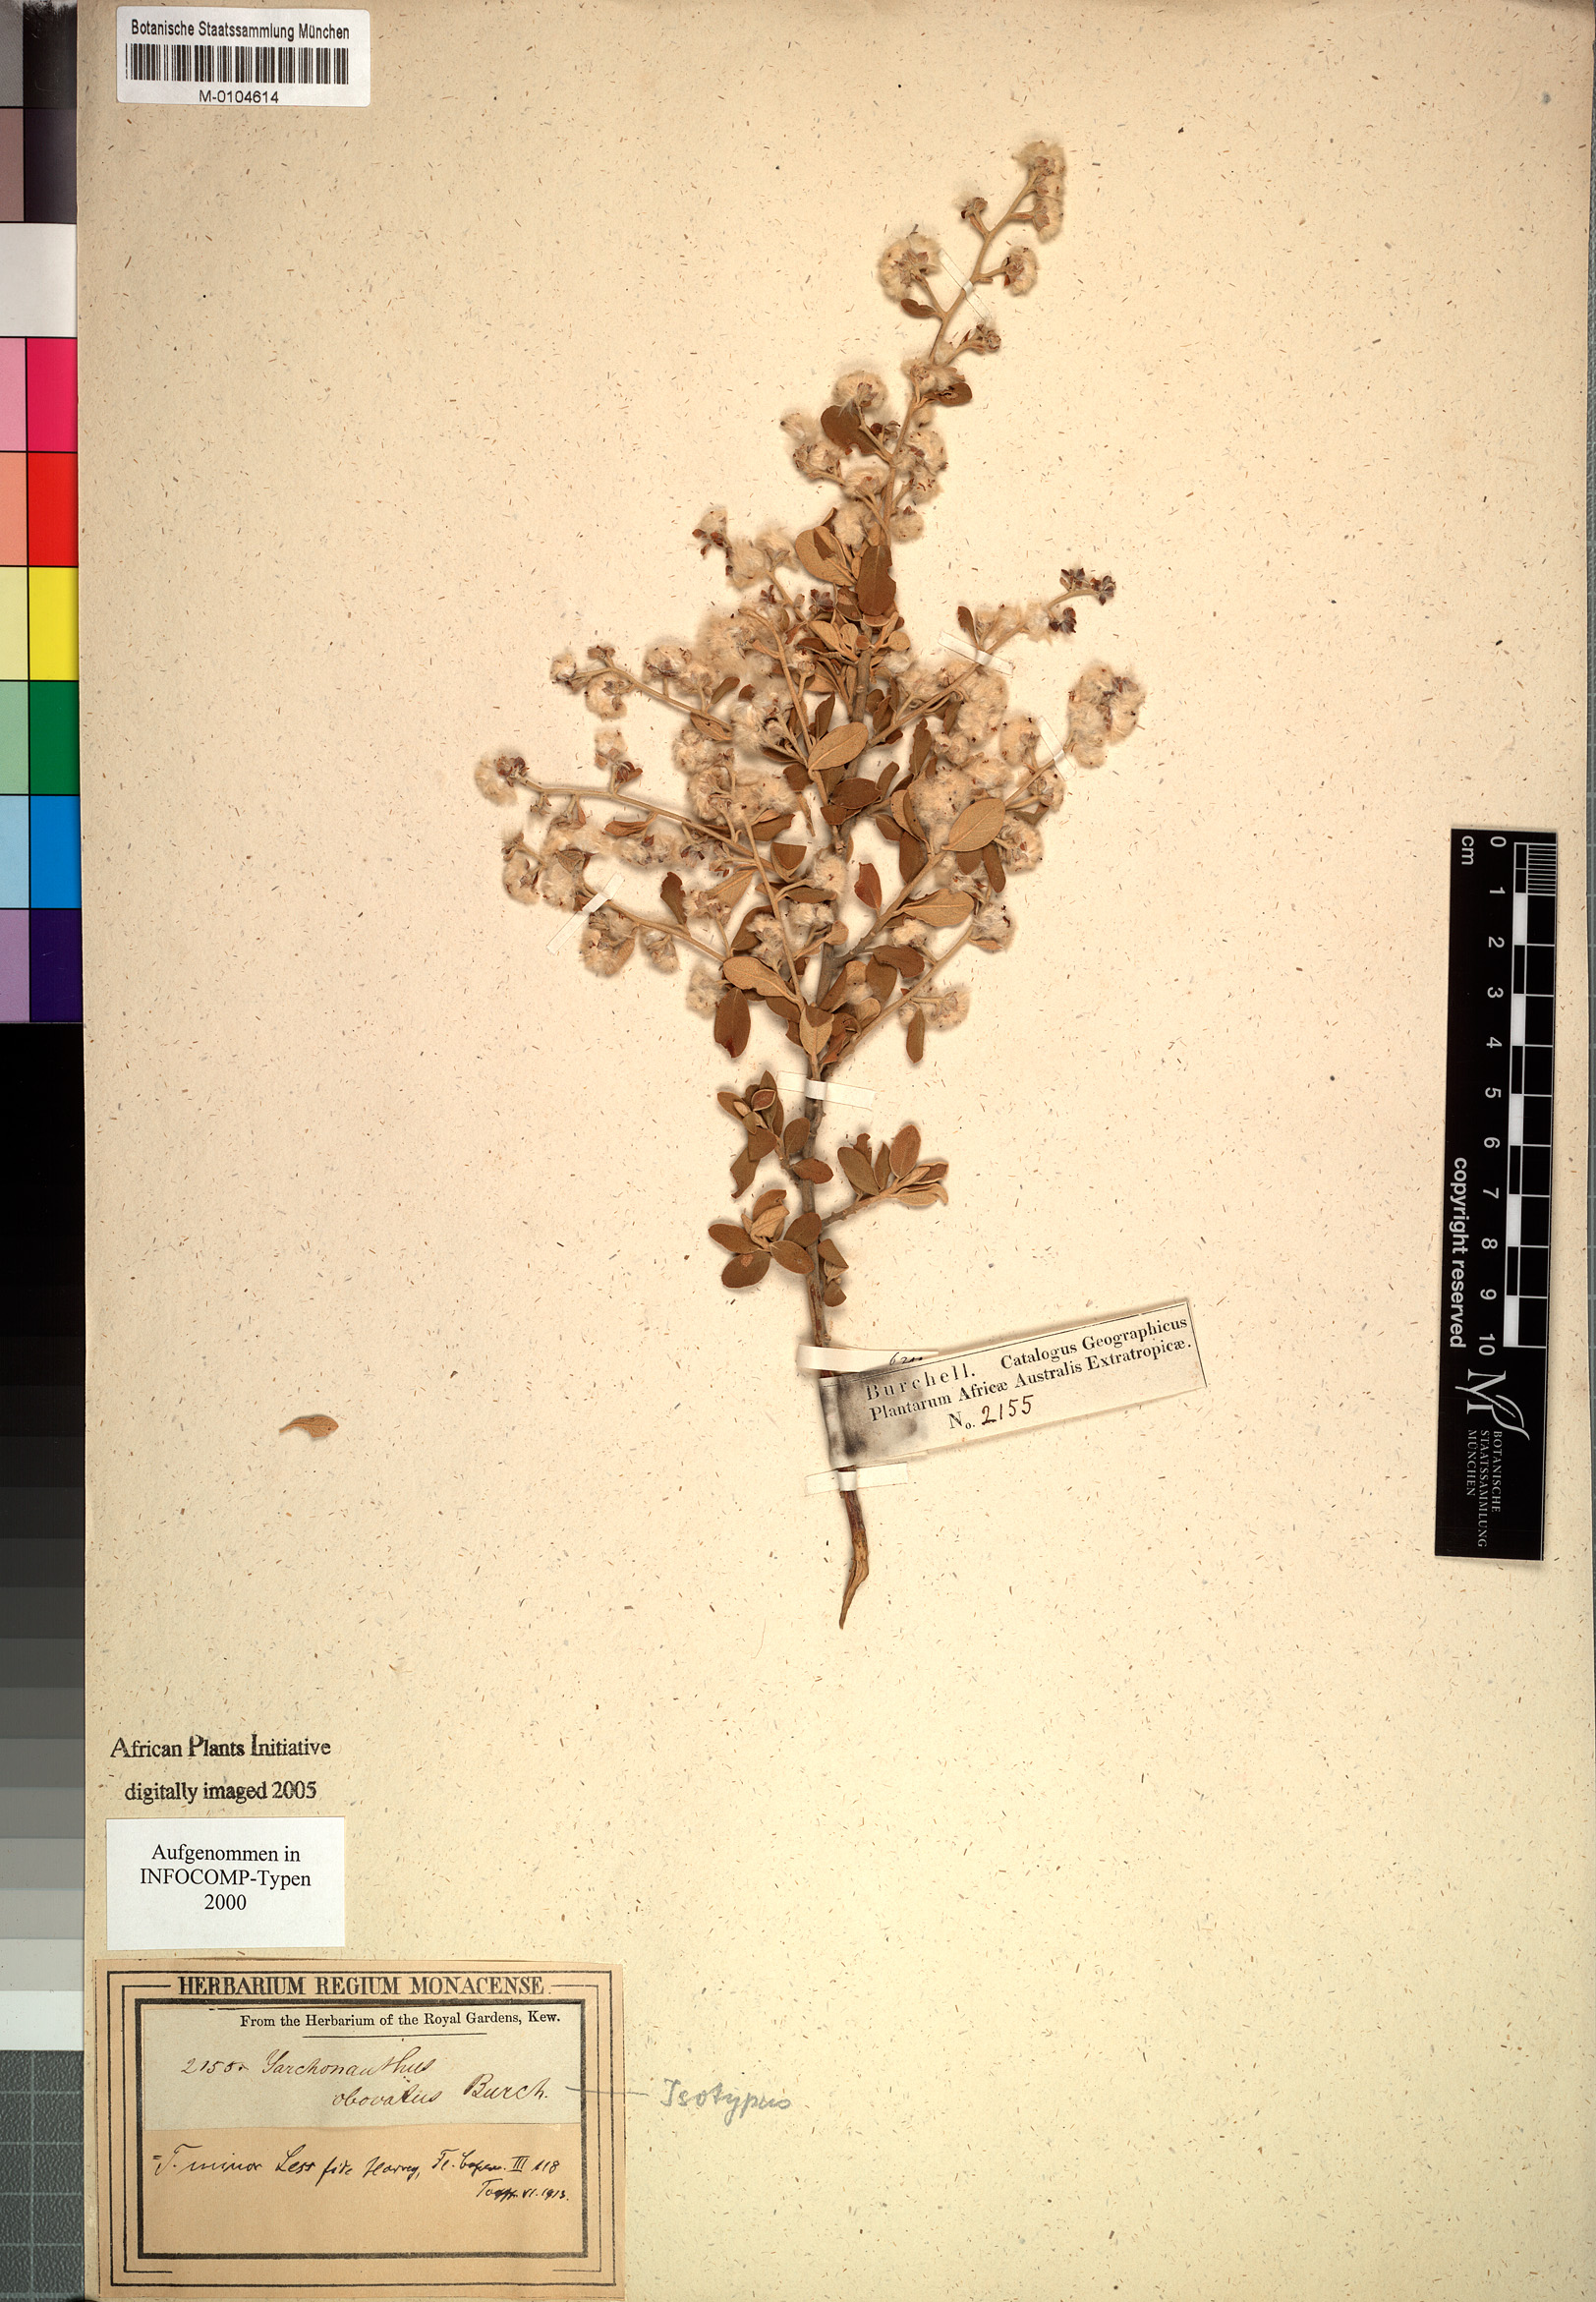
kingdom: Plantae
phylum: Tracheophyta
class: Magnoliopsida
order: Asterales
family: Asteraceae
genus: Tarchonanthus
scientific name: Tarchonanthus obovatus
